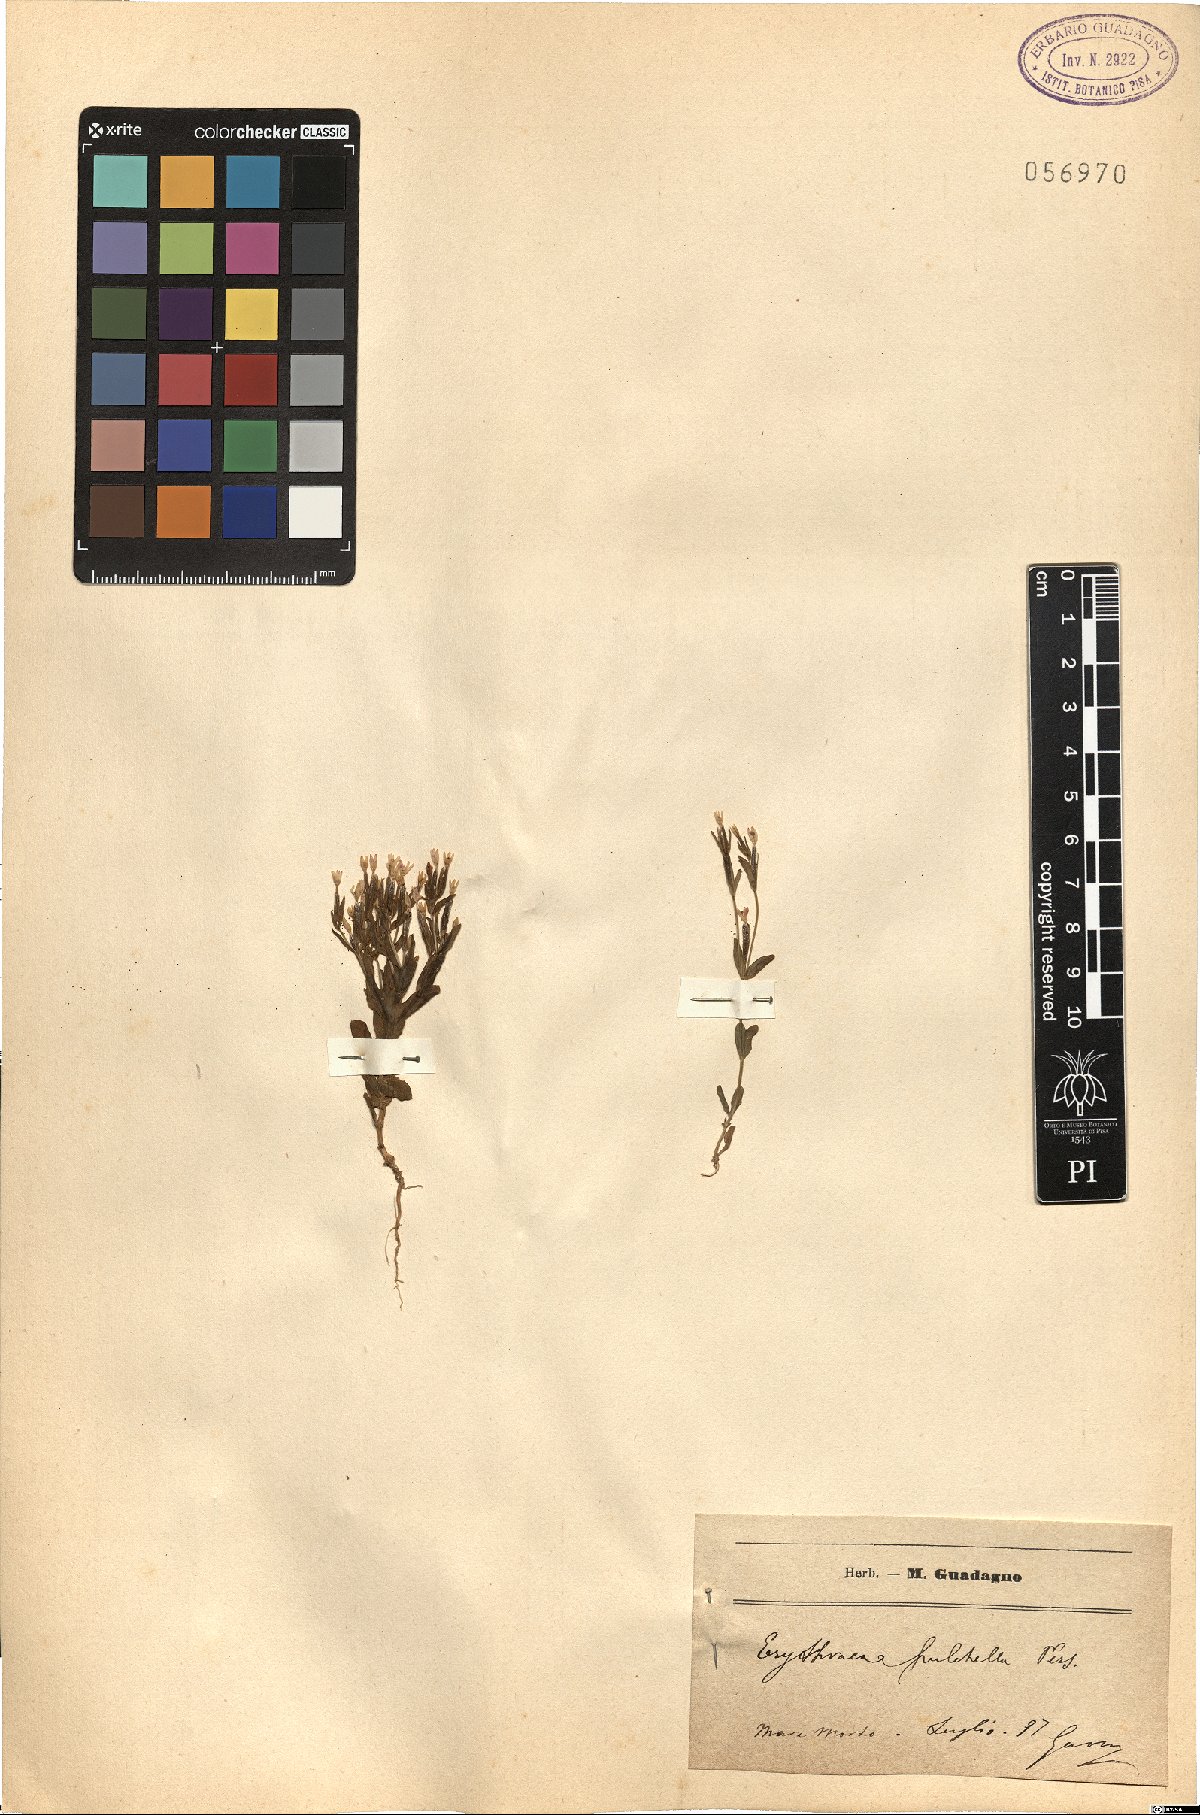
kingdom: Plantae
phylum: Tracheophyta
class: Magnoliopsida
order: Gentianales
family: Gentianaceae
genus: Centaurium
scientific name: Centaurium pulchellum
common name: Lesser centaury
